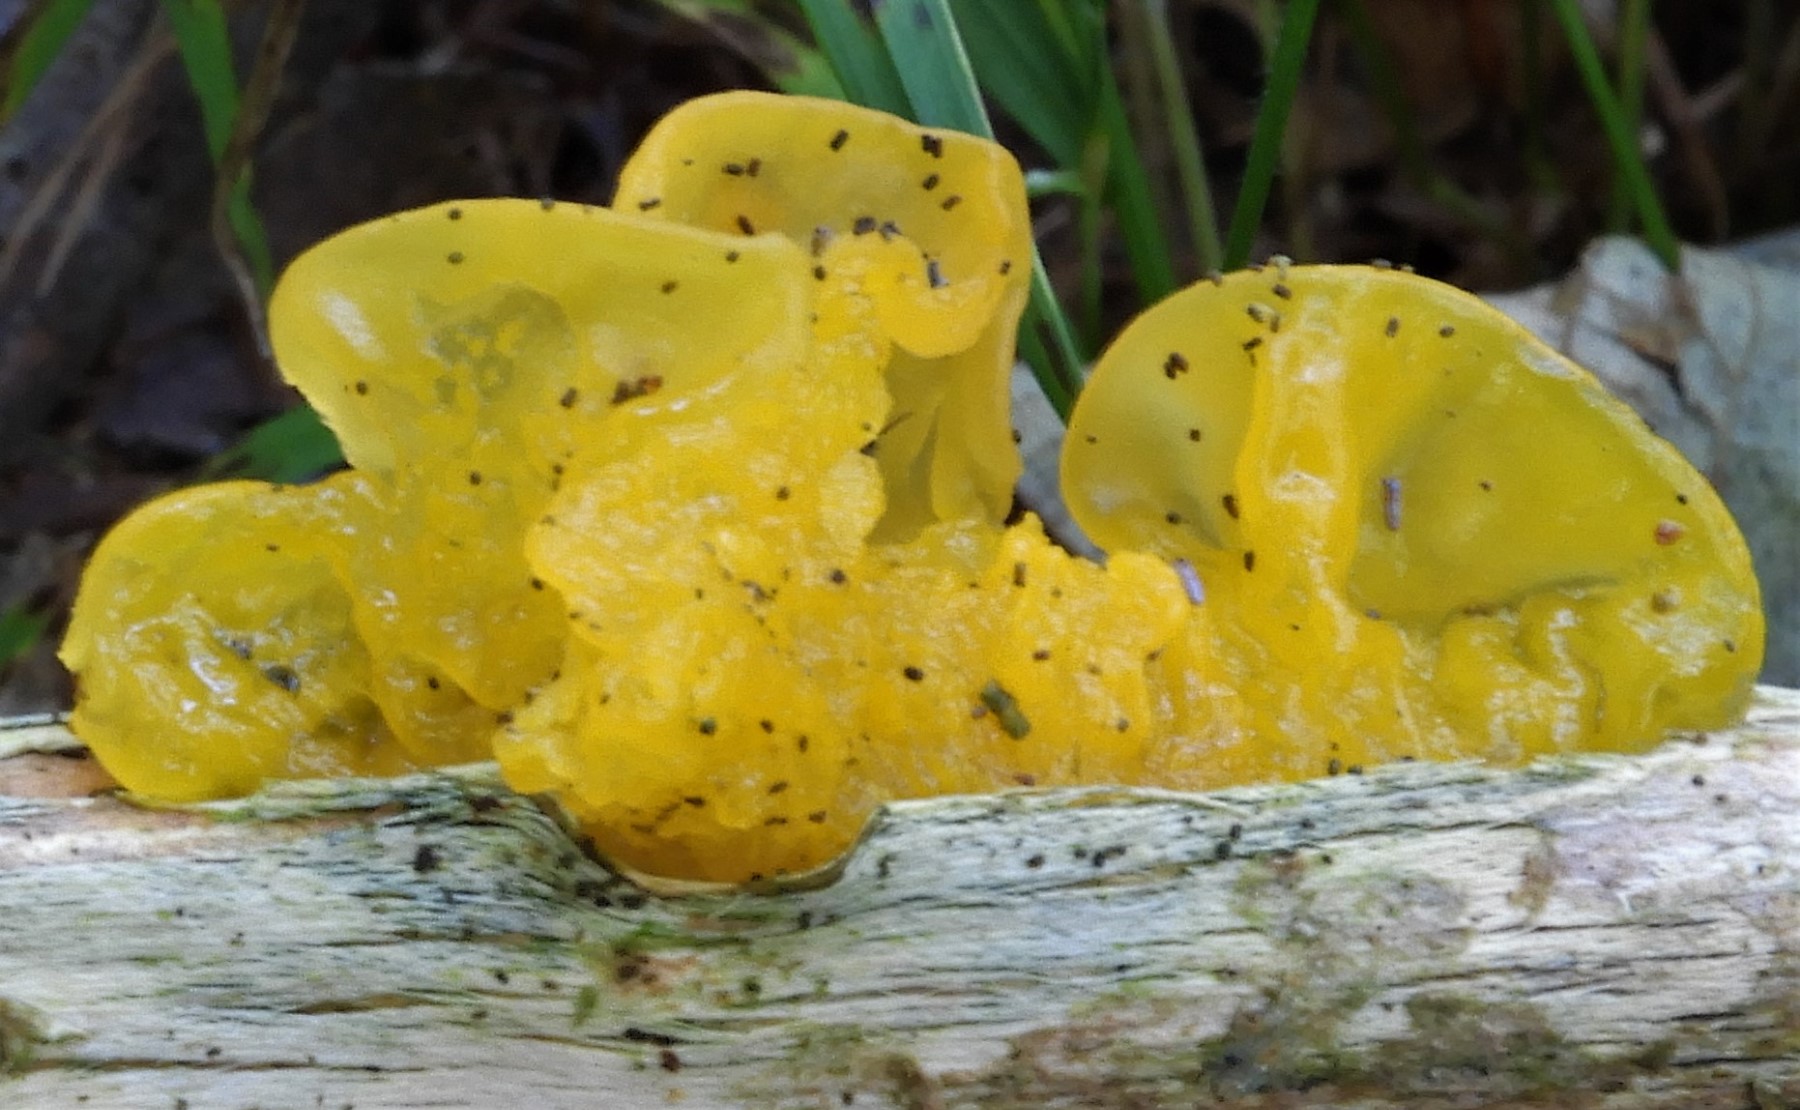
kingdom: Fungi
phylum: Basidiomycota
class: Tremellomycetes
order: Tremellales
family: Tremellaceae
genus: Tremella
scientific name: Tremella mesenterica
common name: gul bævresvamp
